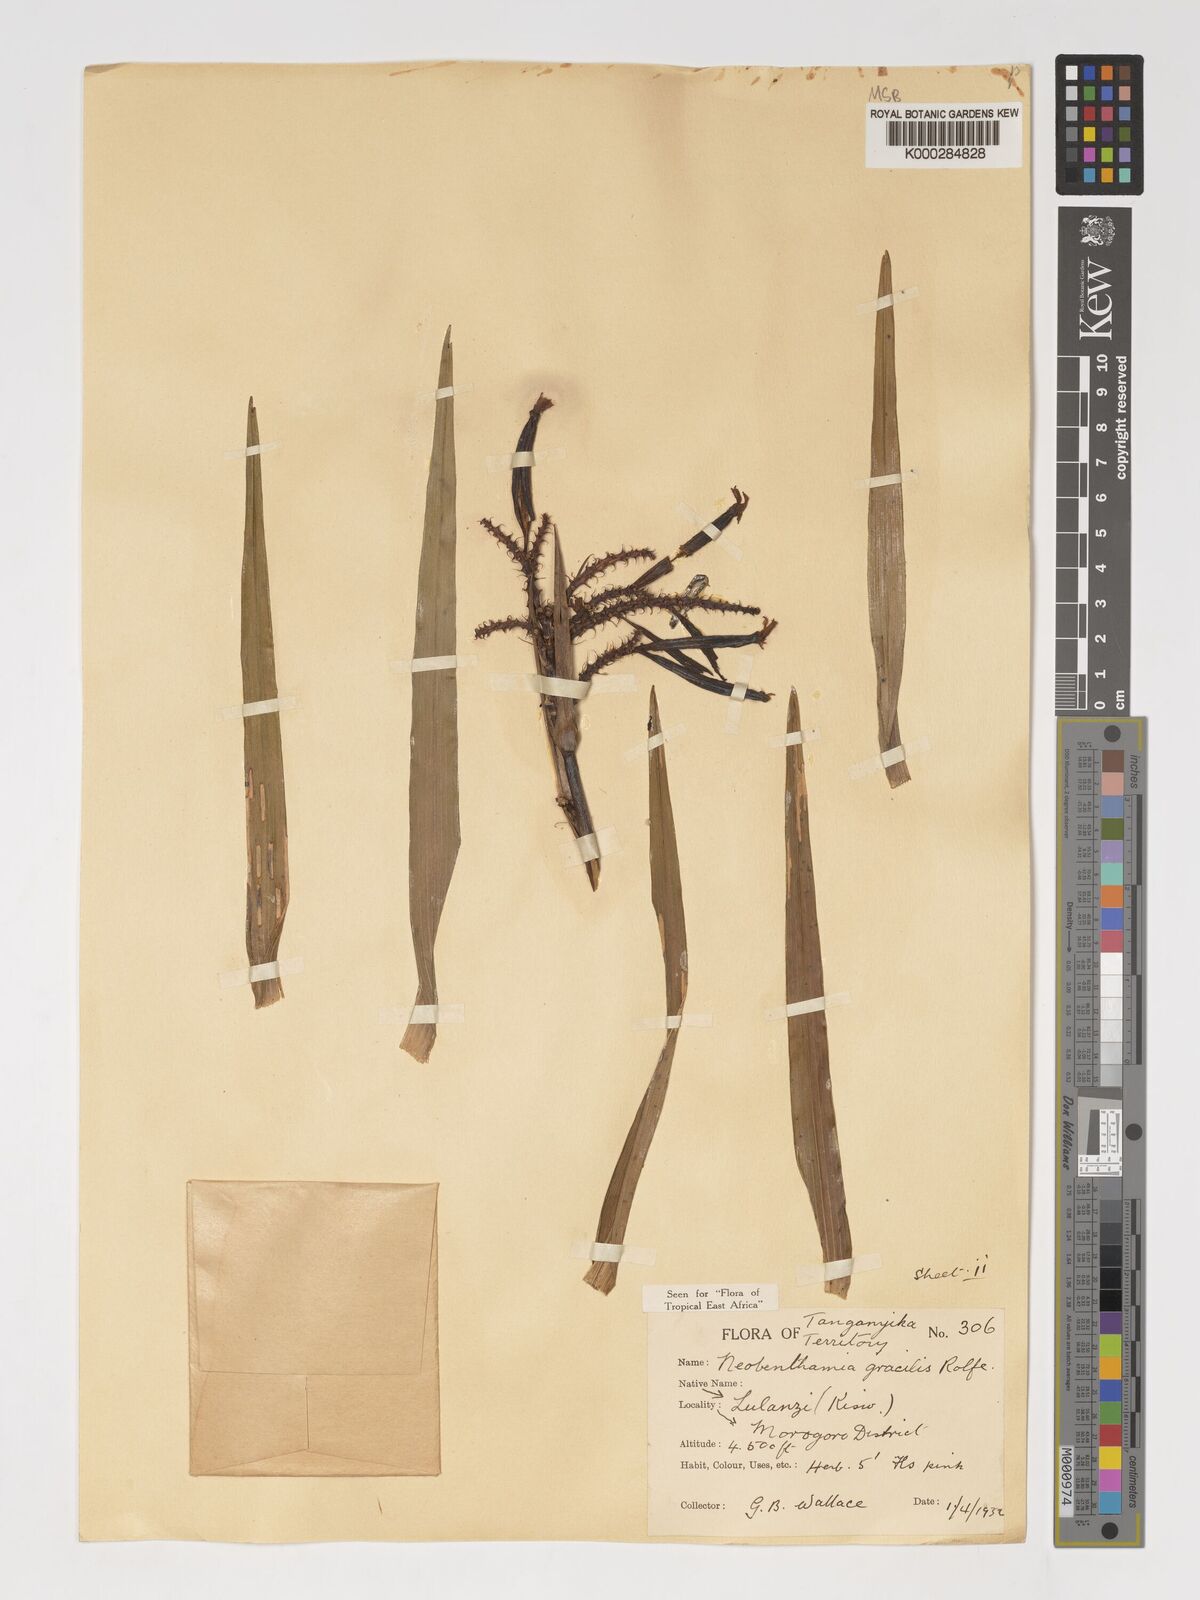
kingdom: Plantae
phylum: Tracheophyta
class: Liliopsida
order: Asparagales
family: Orchidaceae
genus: Polystachya
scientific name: Polystachya neobenthamia
